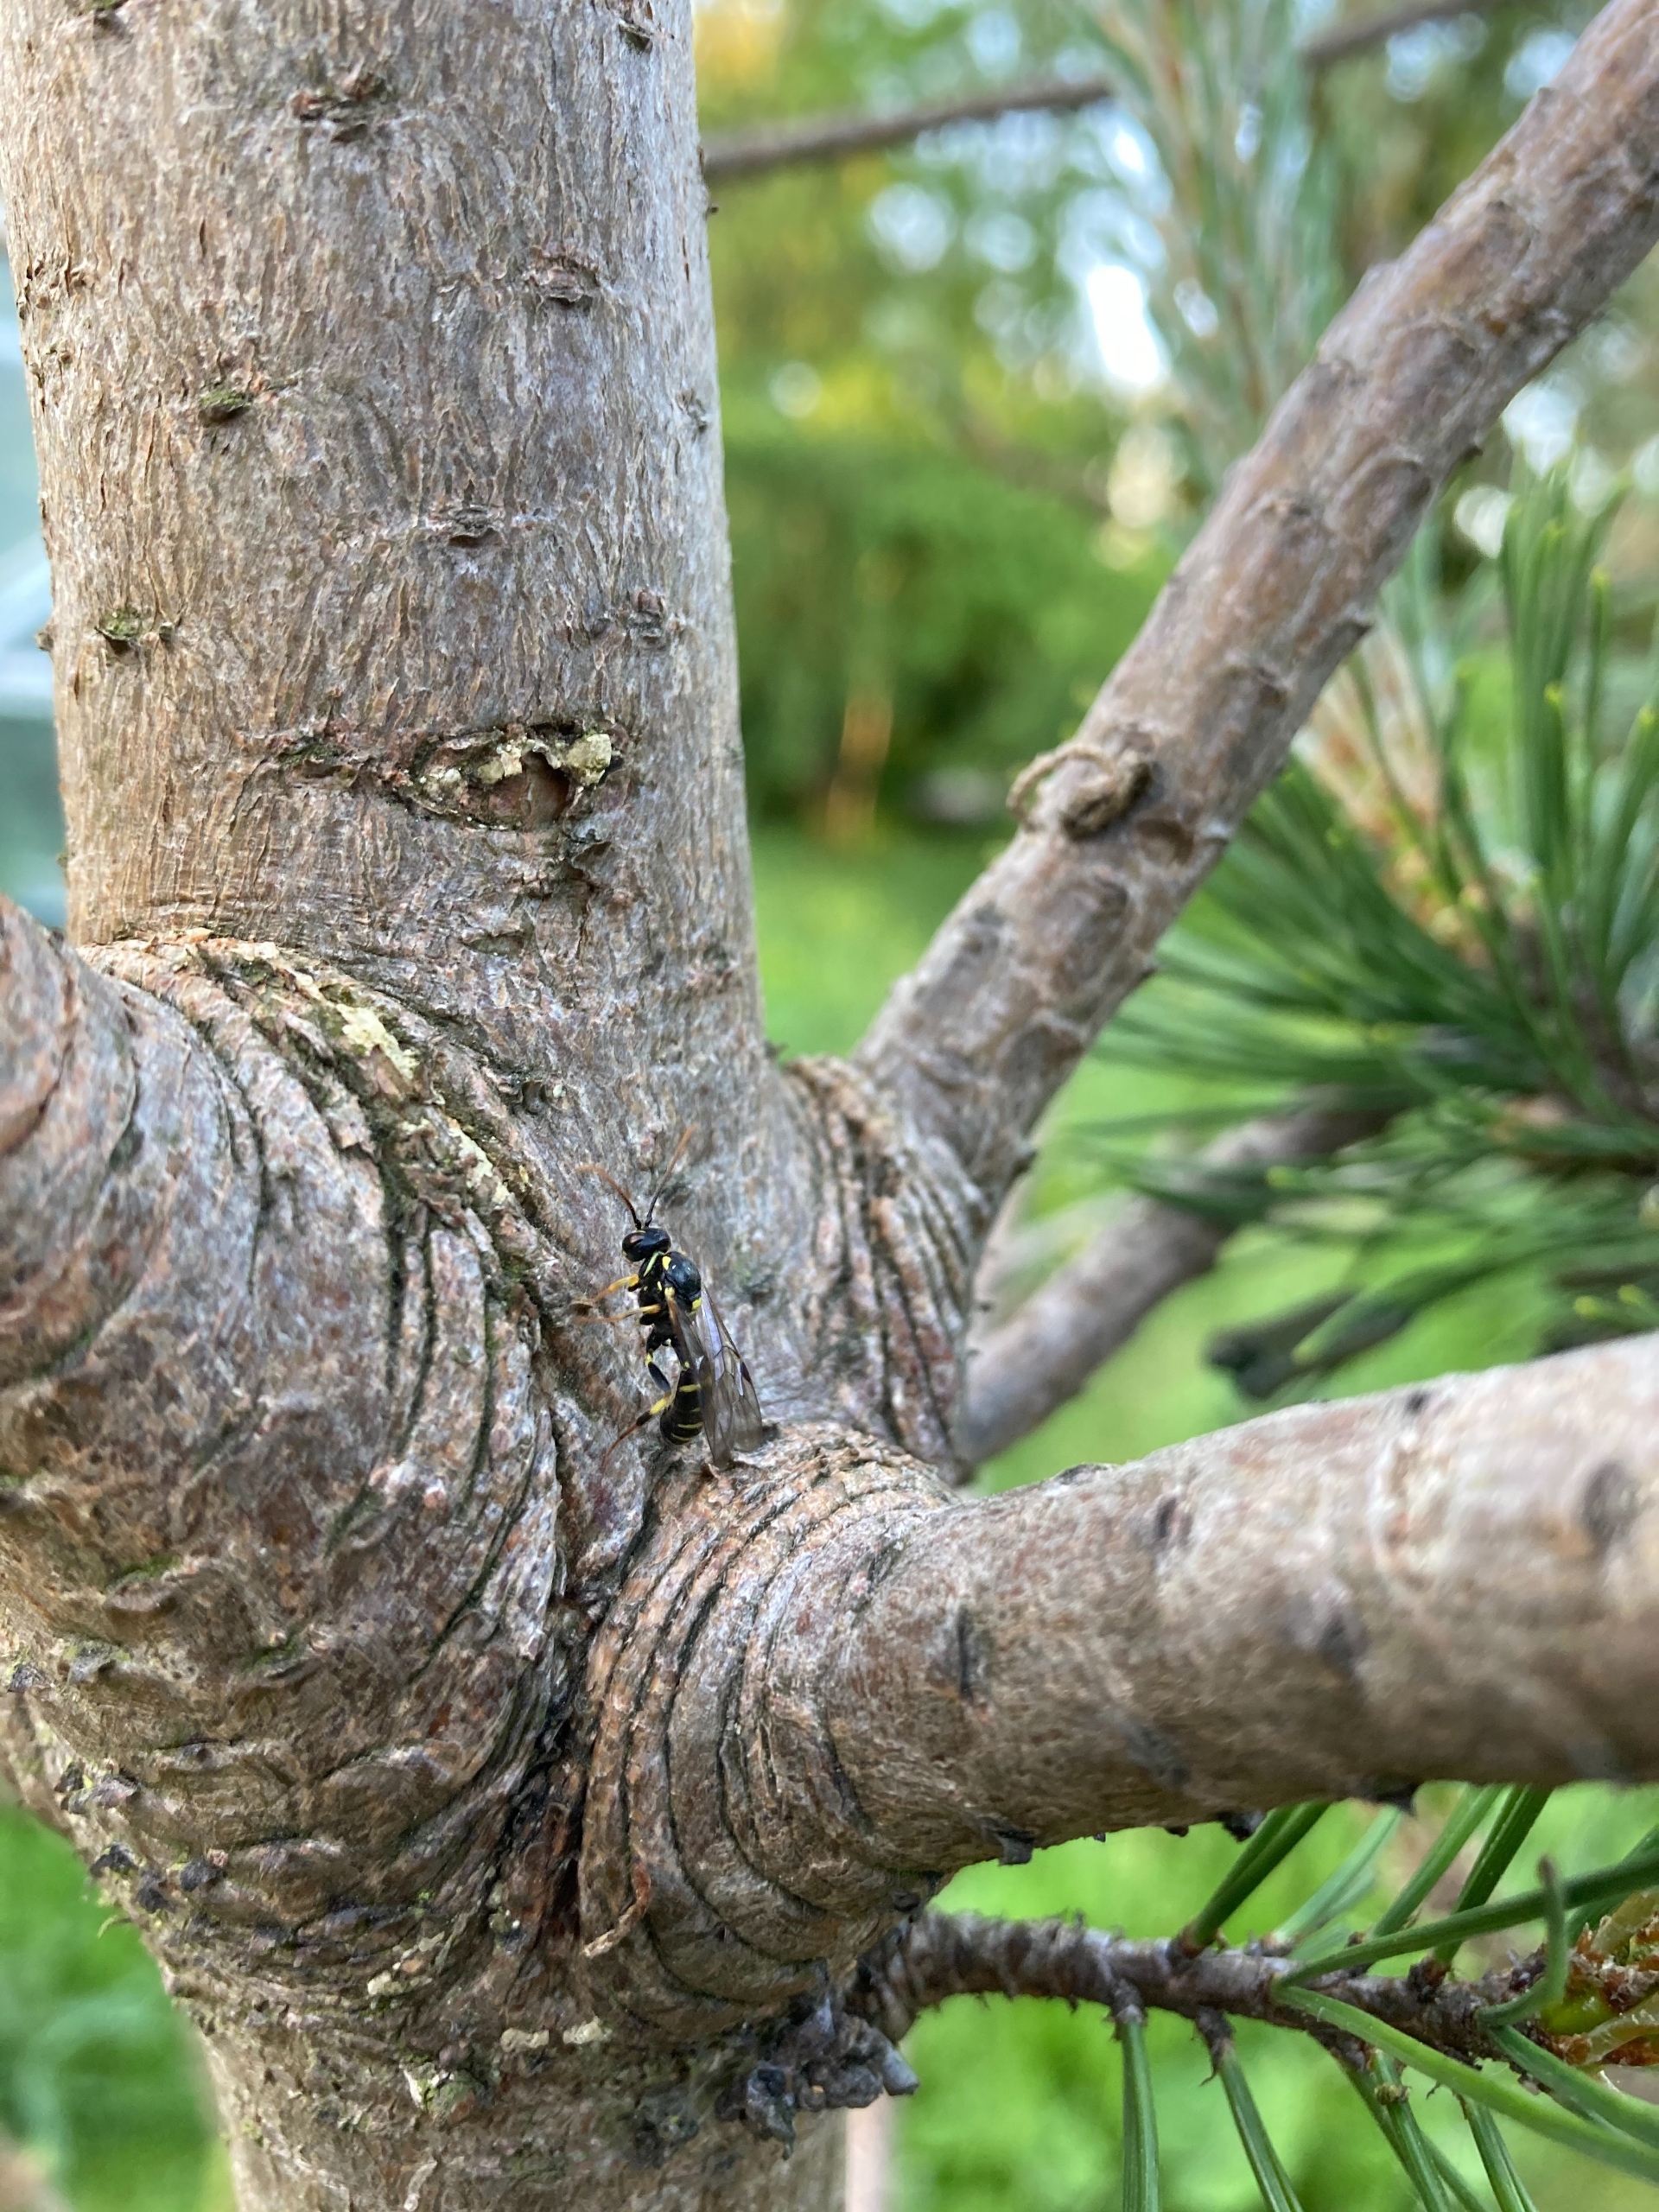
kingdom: Animalia
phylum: Arthropoda
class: Insecta
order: Hymenoptera
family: Ichneumonidae
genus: Exenterus
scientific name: Exenterus abruptorius
